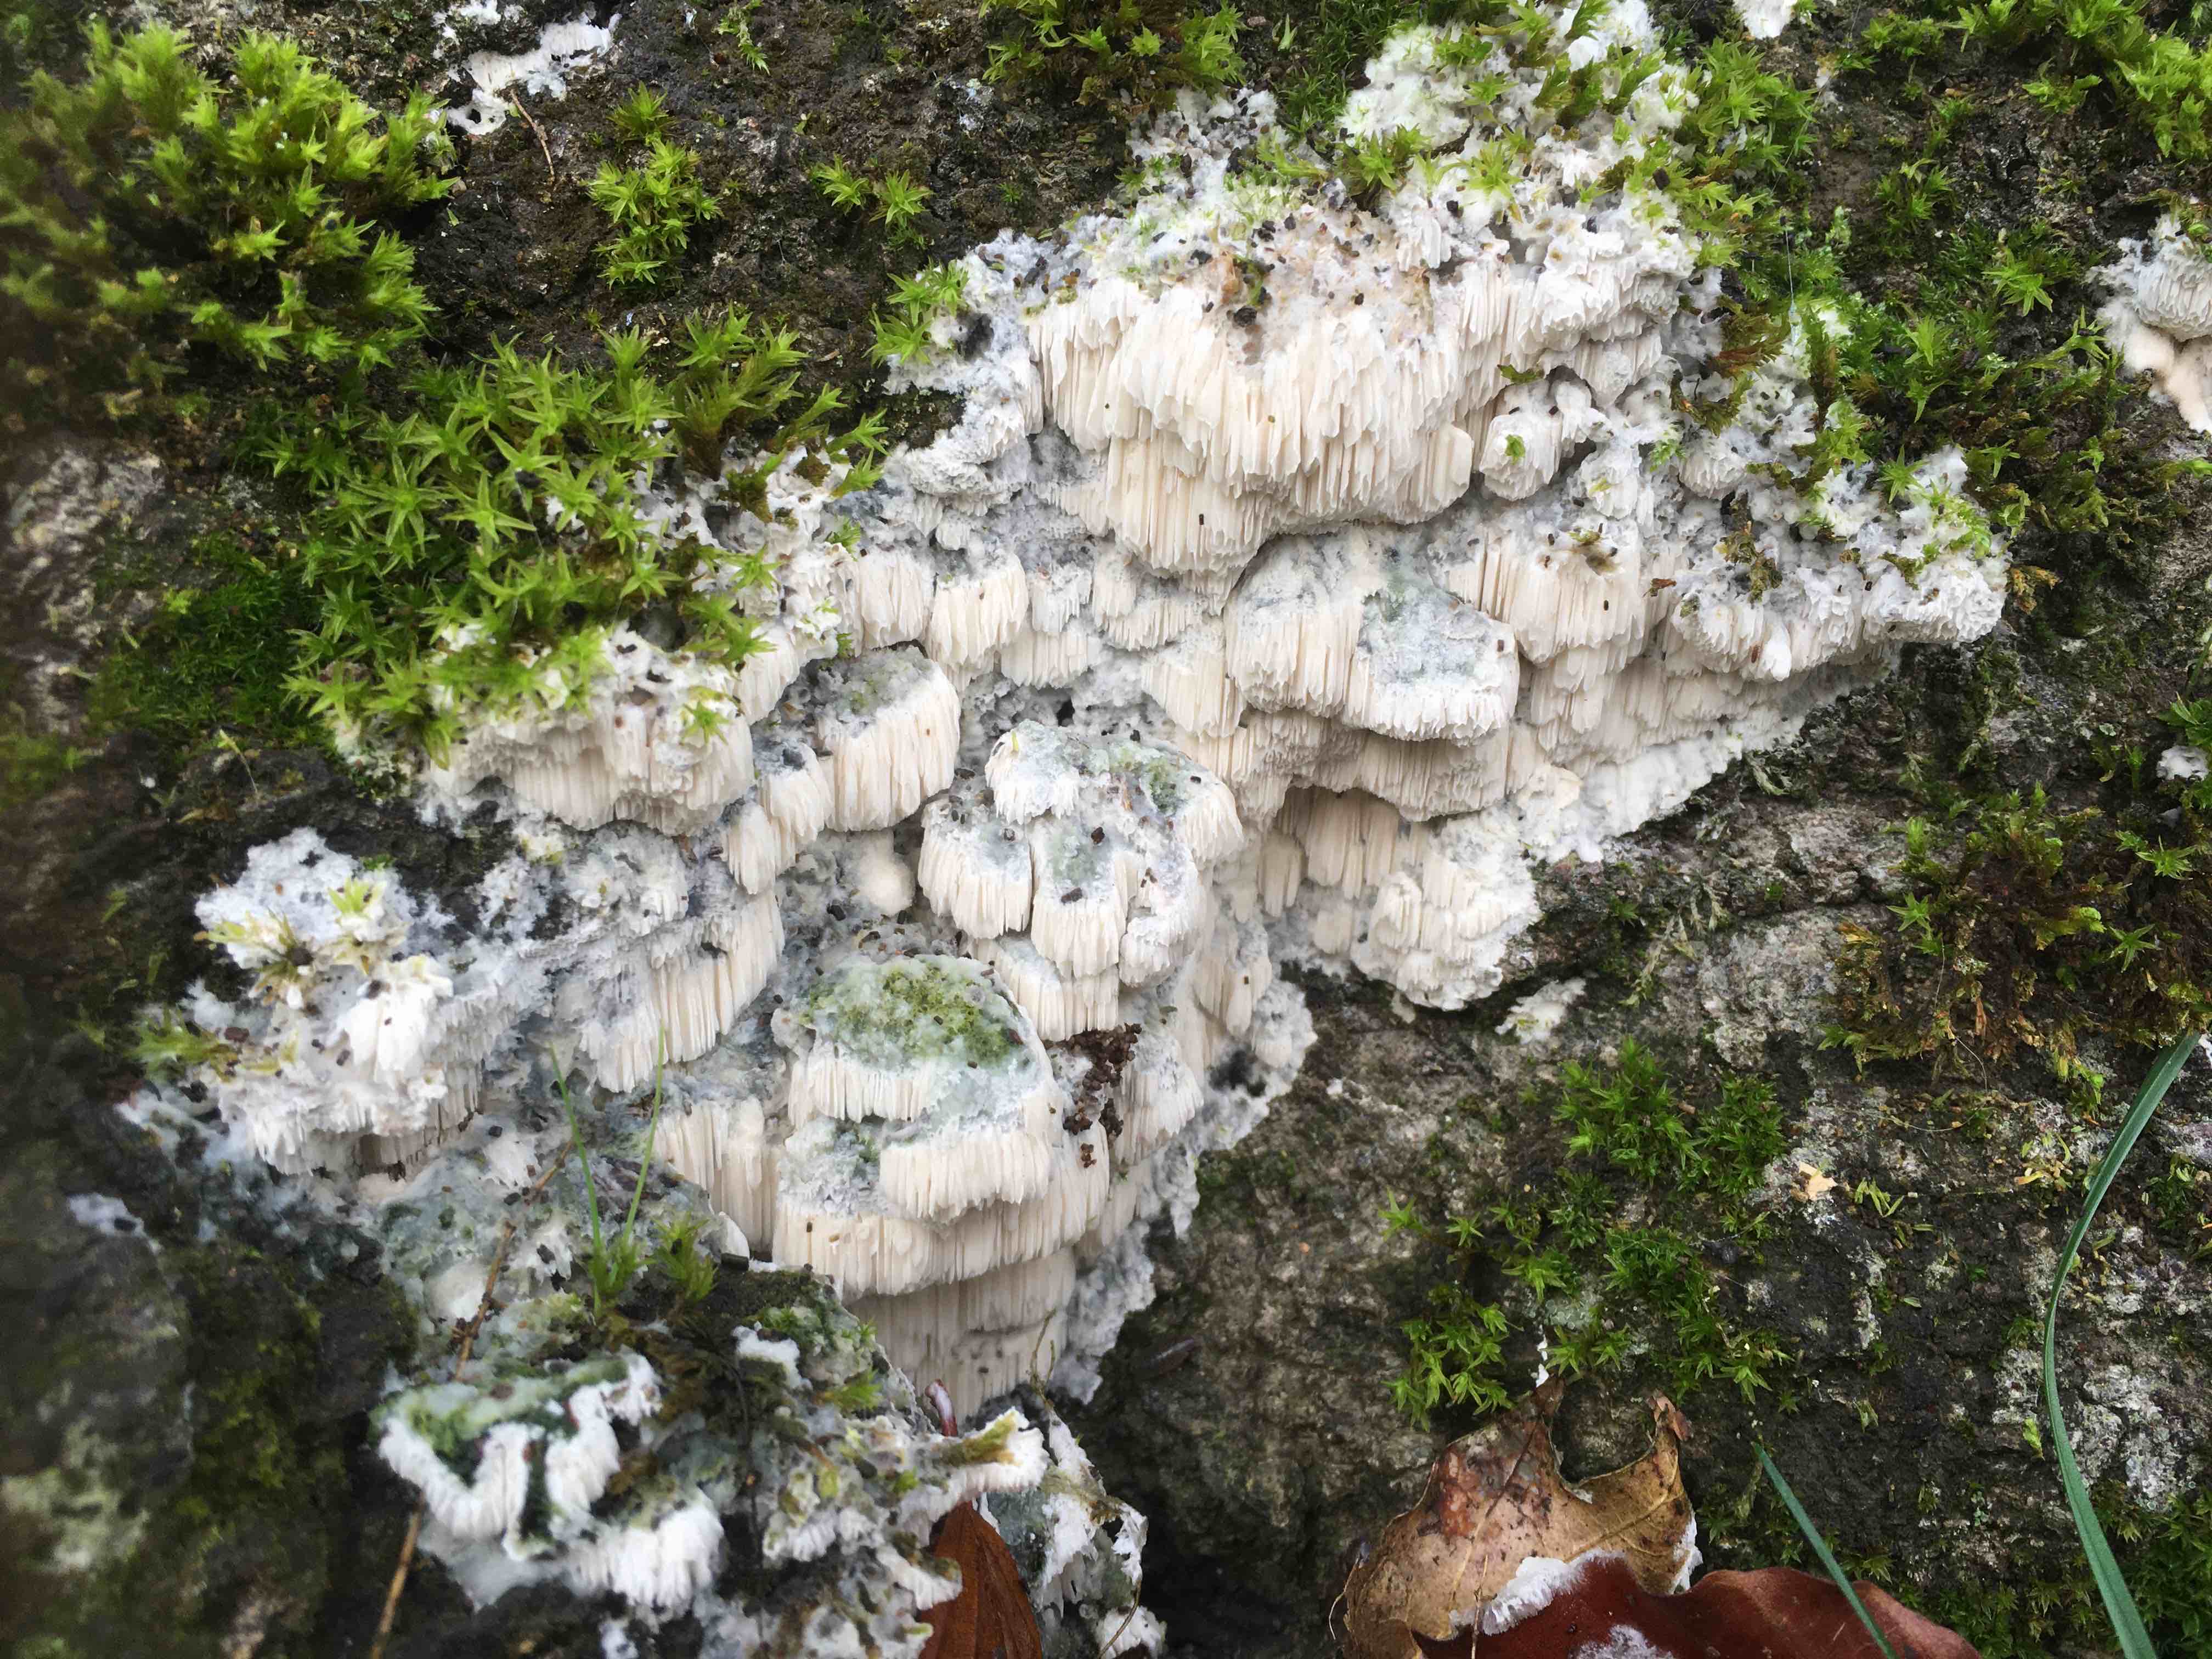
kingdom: Fungi
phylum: Basidiomycota
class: Agaricomycetes
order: Polyporales
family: Irpicaceae
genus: Irpex
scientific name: Irpex latemarginatus
